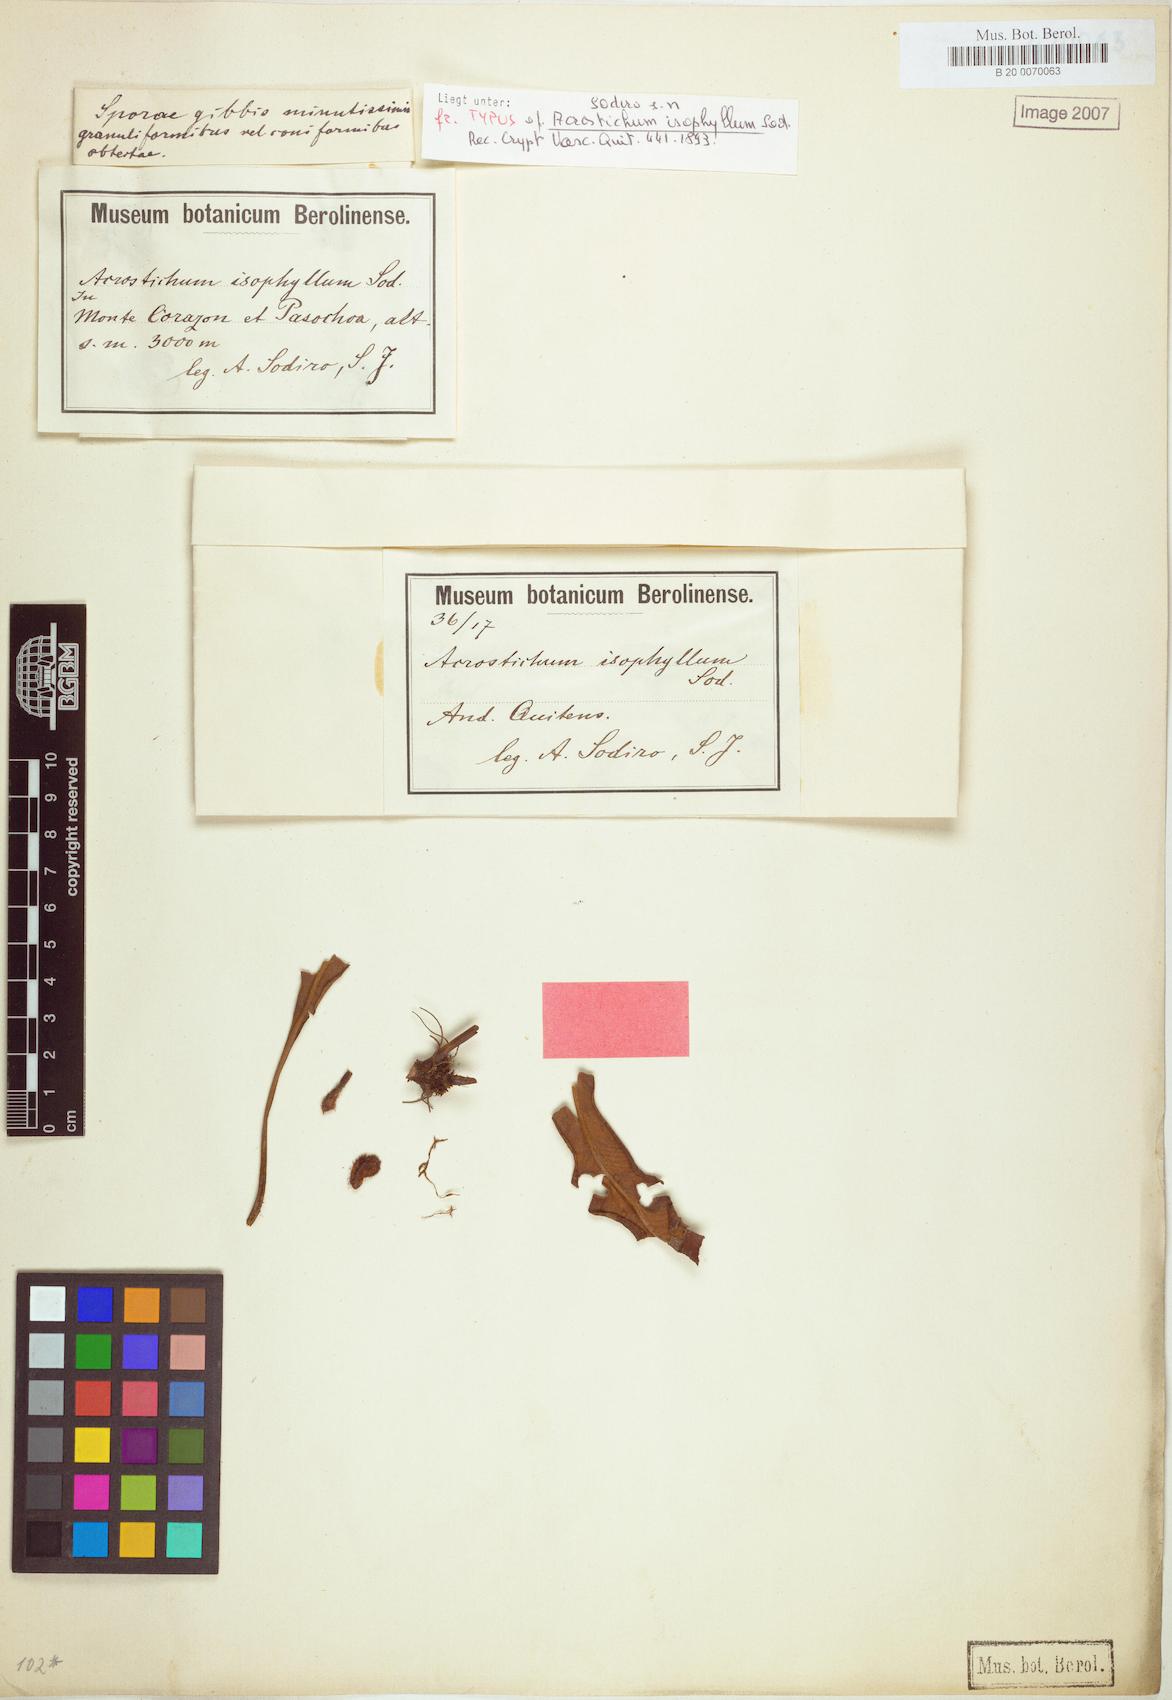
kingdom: Plantae
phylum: Tracheophyta
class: Polypodiopsida
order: Polypodiales
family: Dryopteridaceae
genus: Elaphoglossum
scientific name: Elaphoglossum isophyllum
